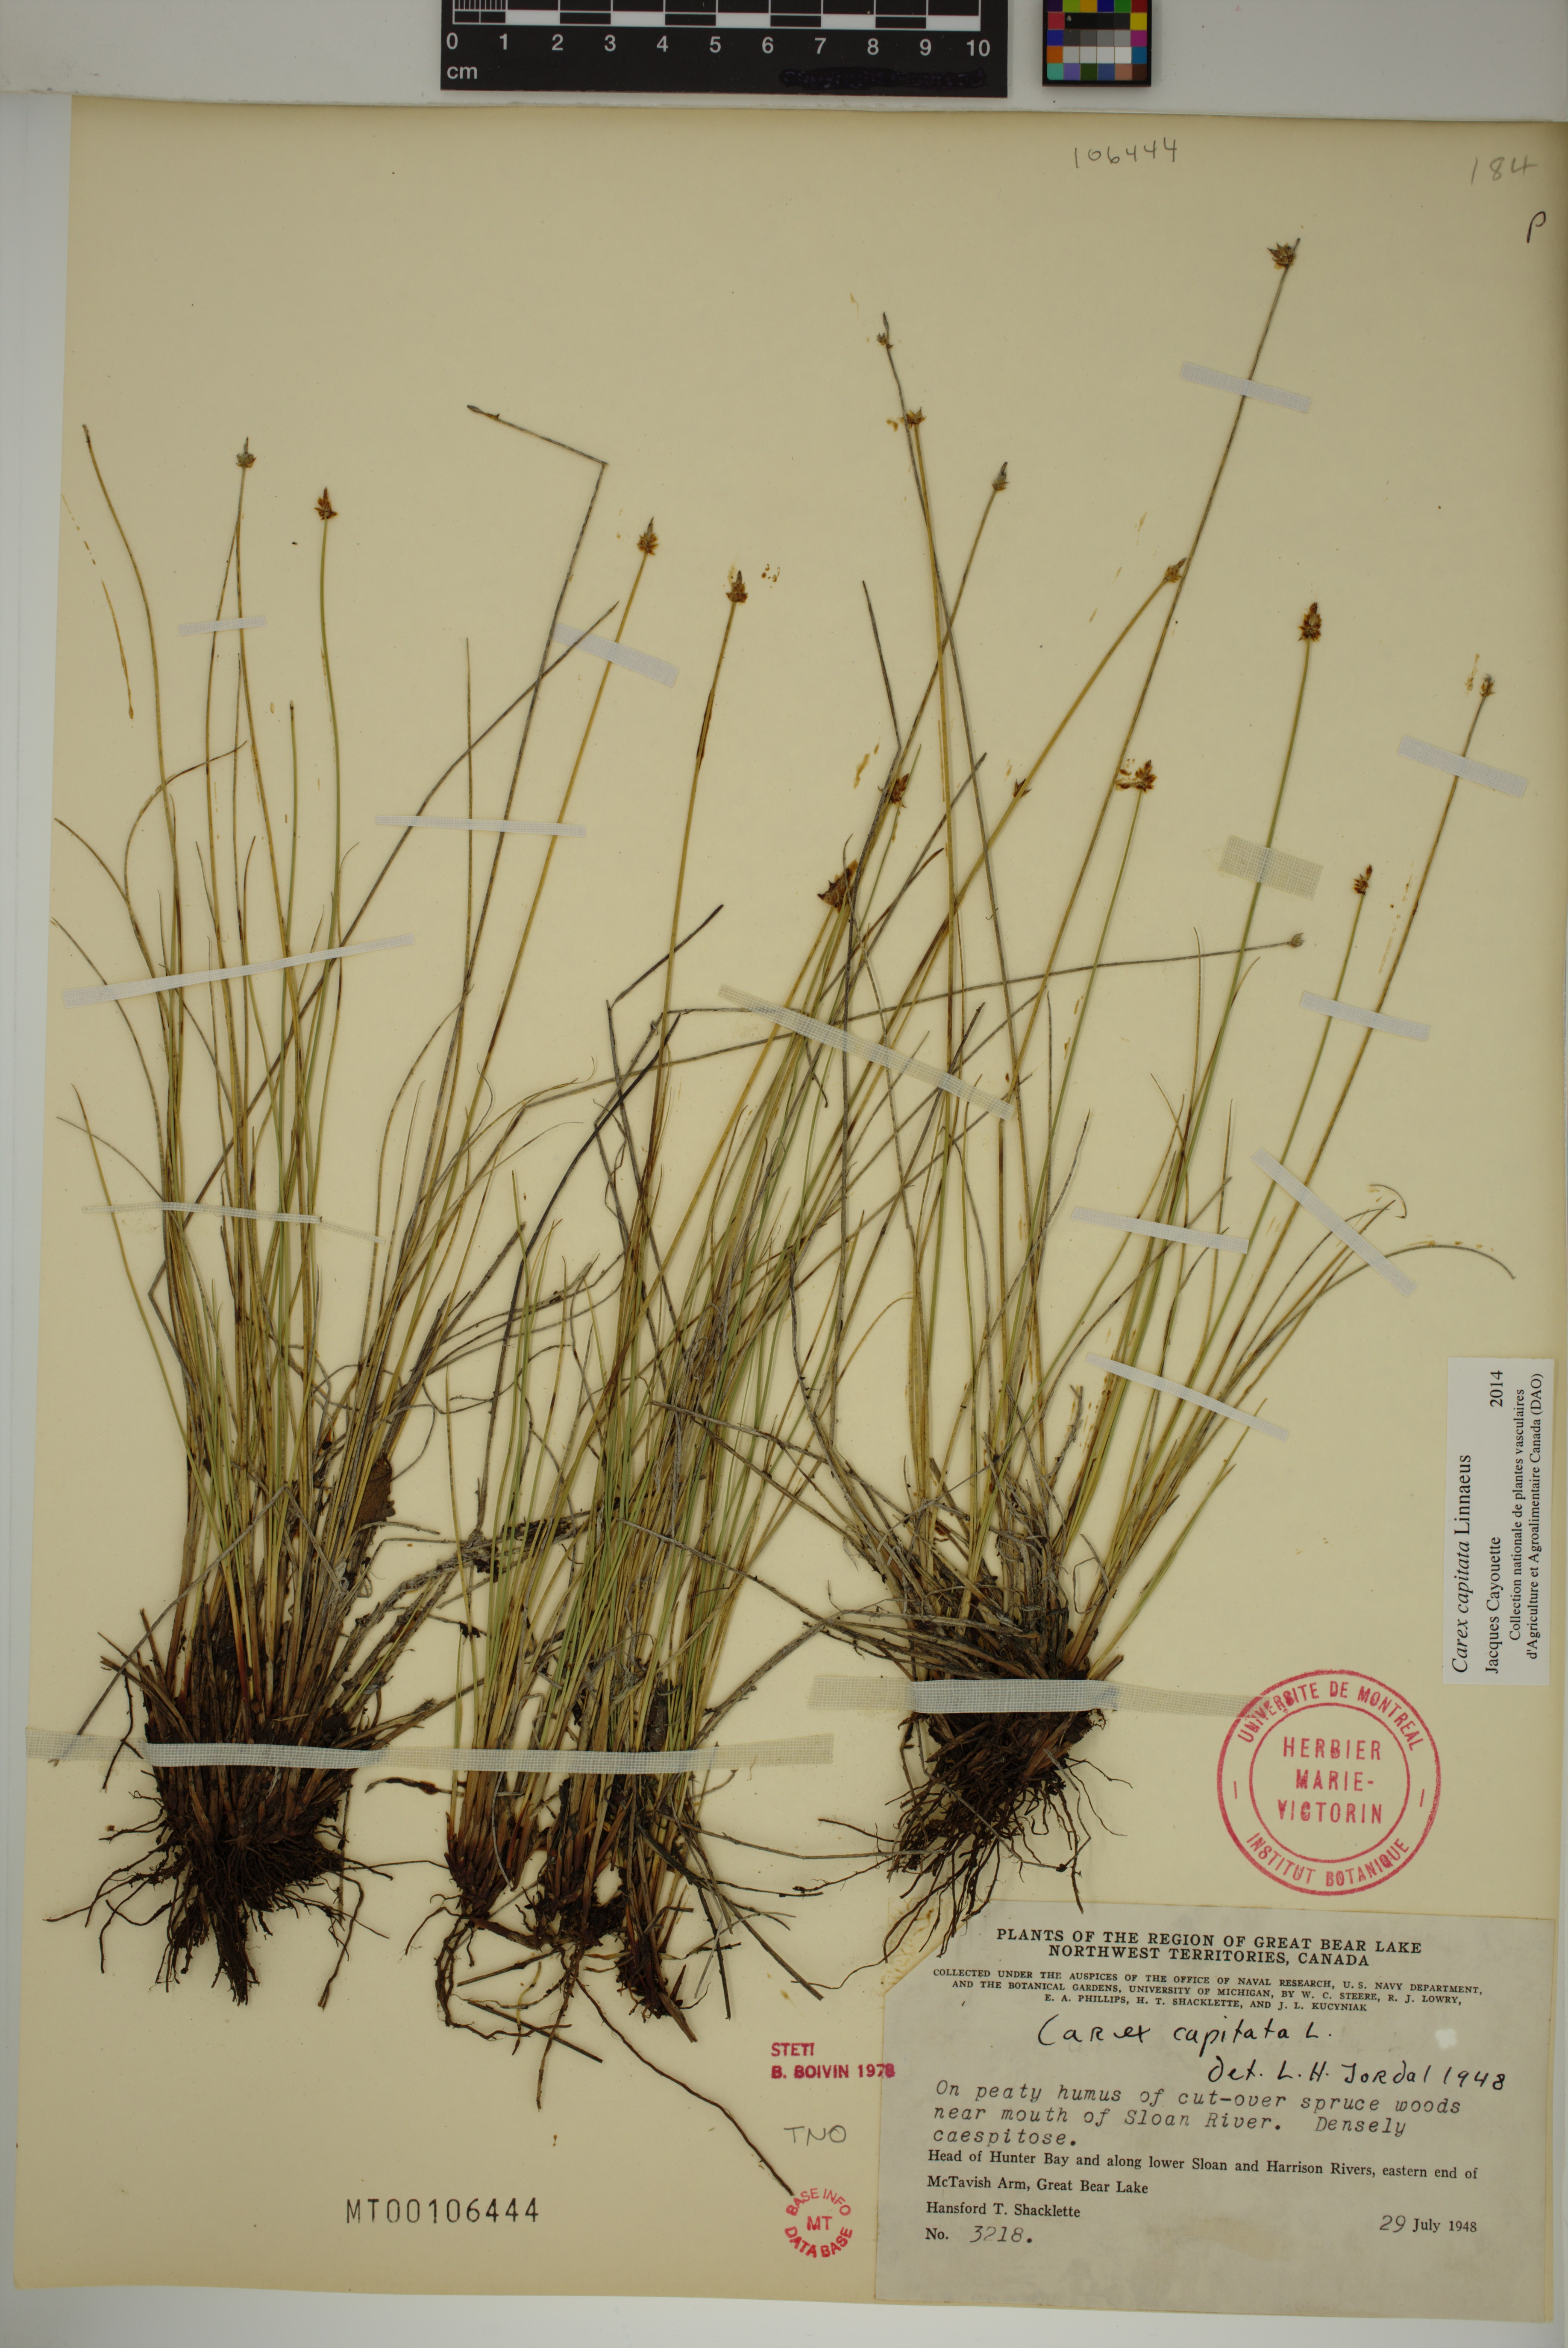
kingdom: Plantae
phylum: Tracheophyta
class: Liliopsida
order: Poales
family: Cyperaceae
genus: Carex
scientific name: Carex capitata
